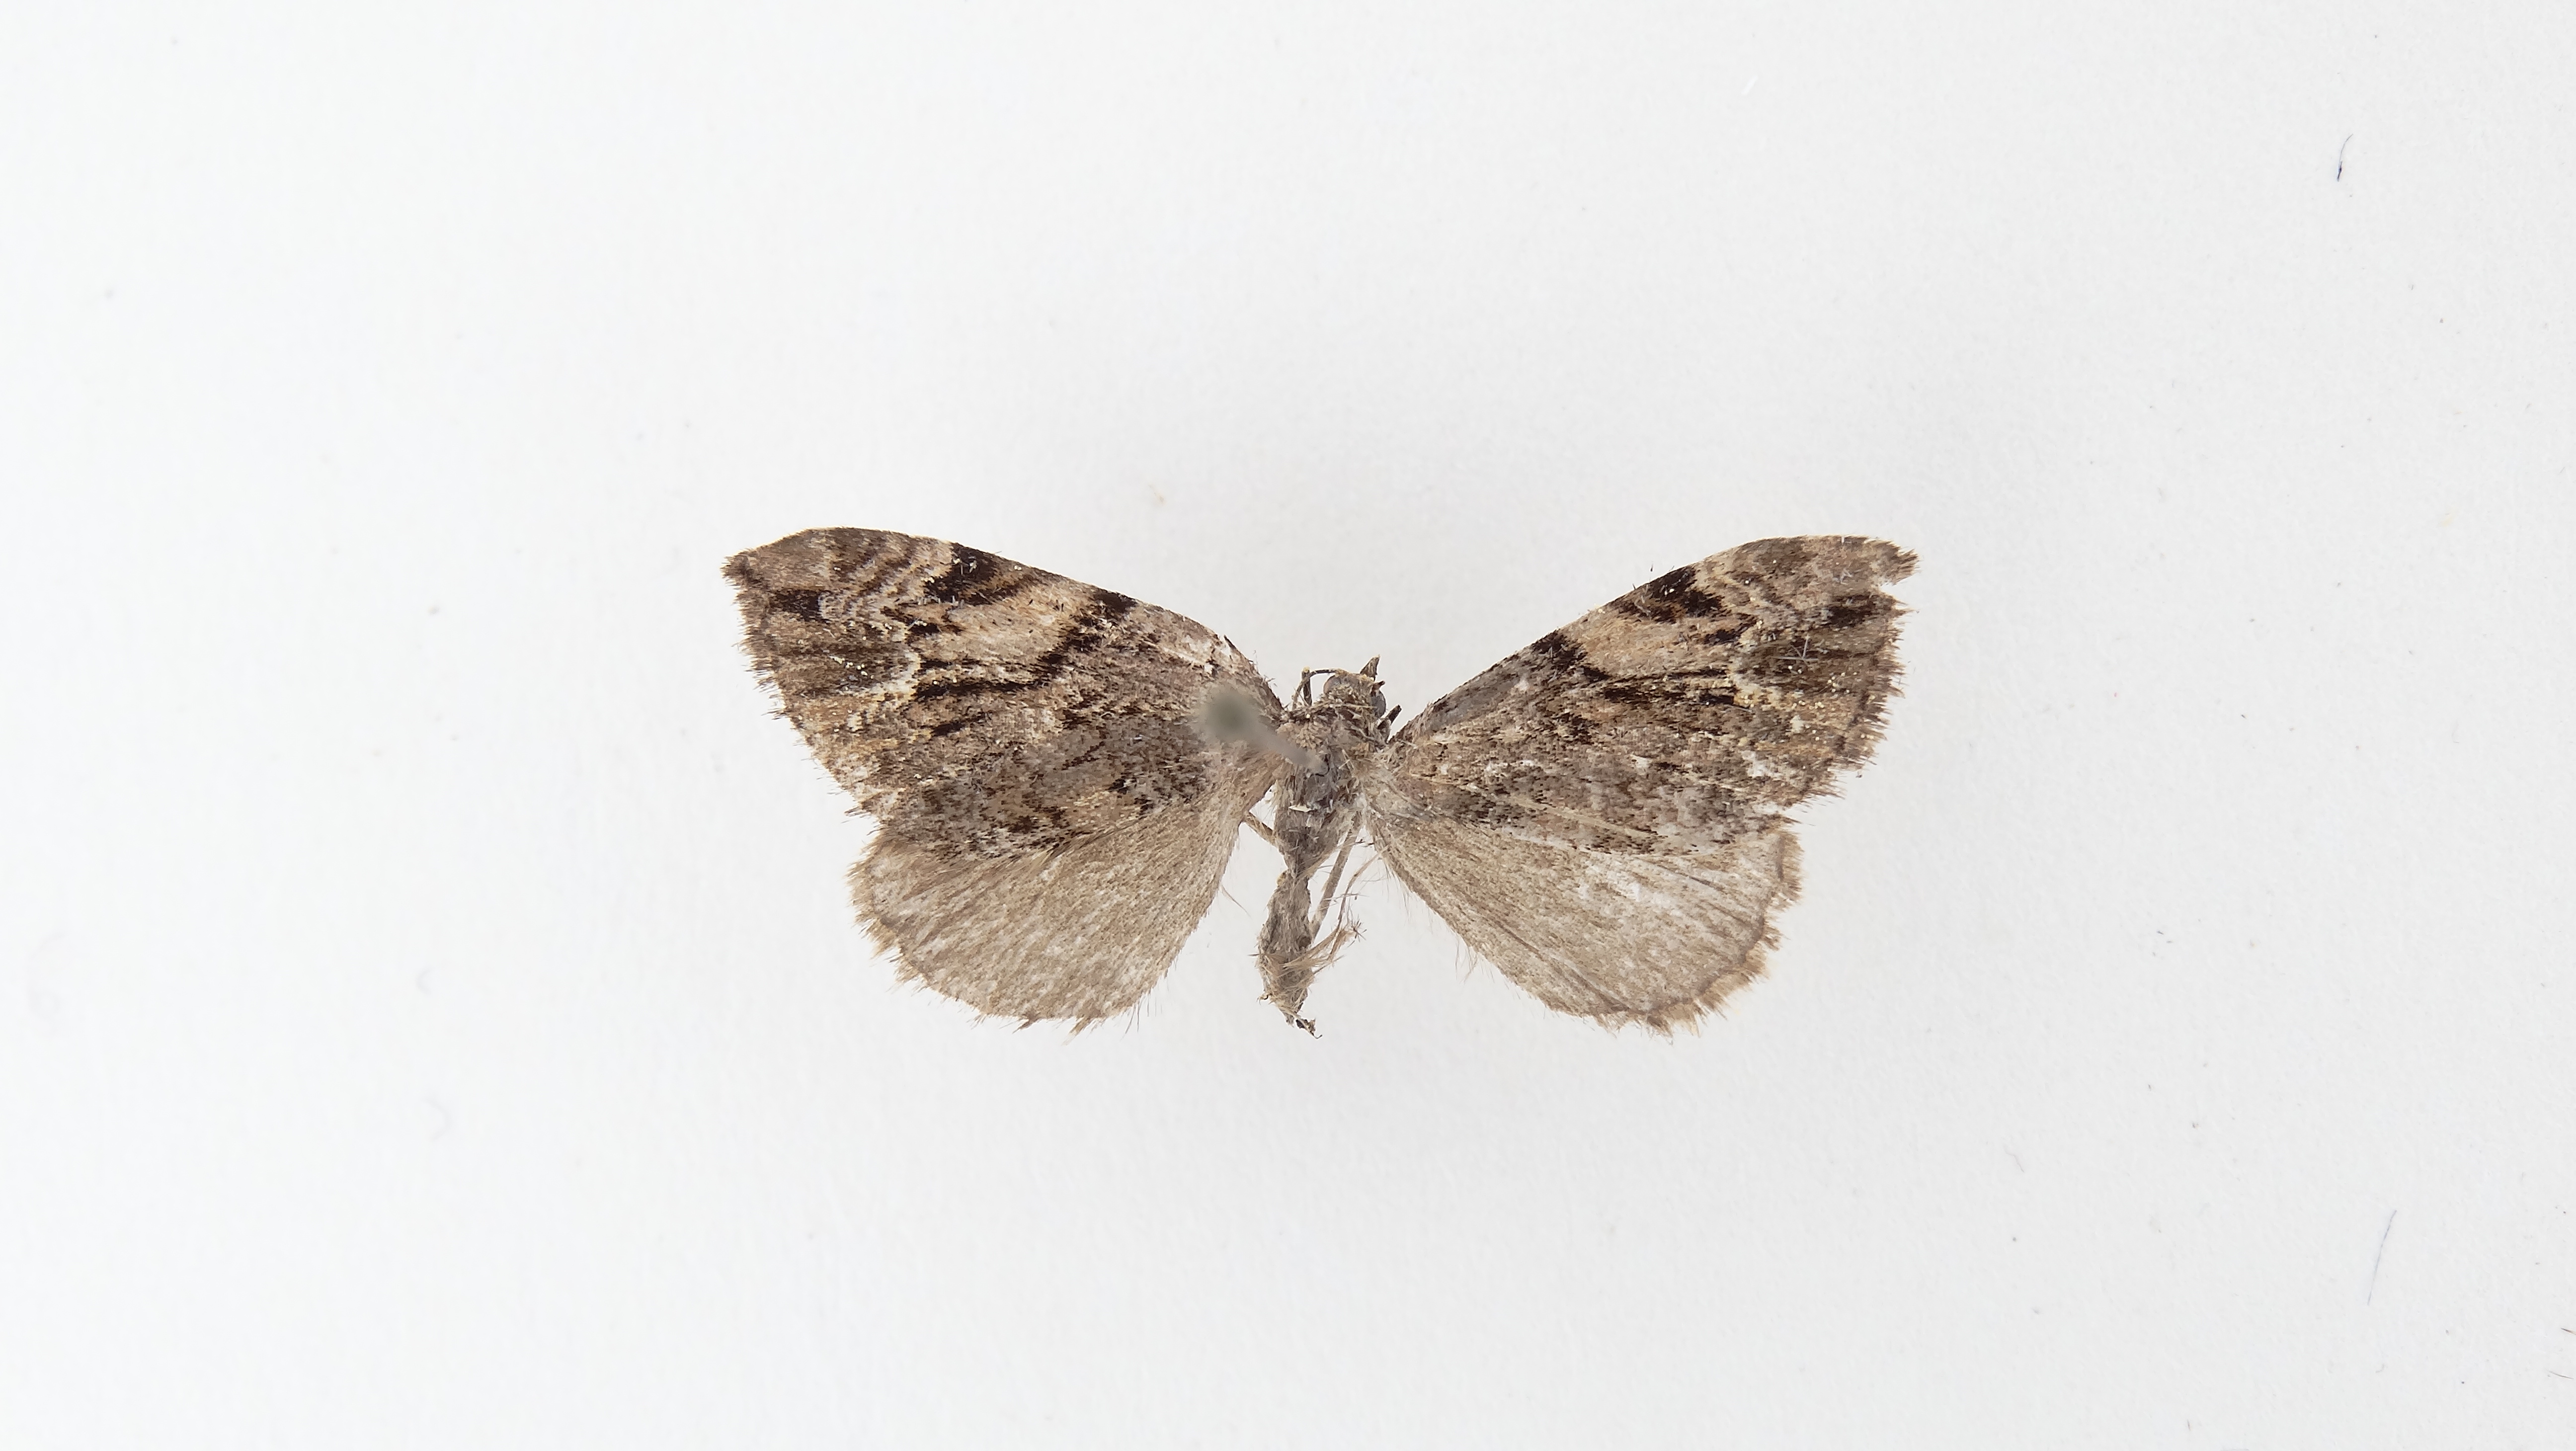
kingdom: Animalia
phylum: Arthropoda
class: Insecta
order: Lepidoptera
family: Geometridae
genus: Nebula
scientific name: Nebula corticalis
